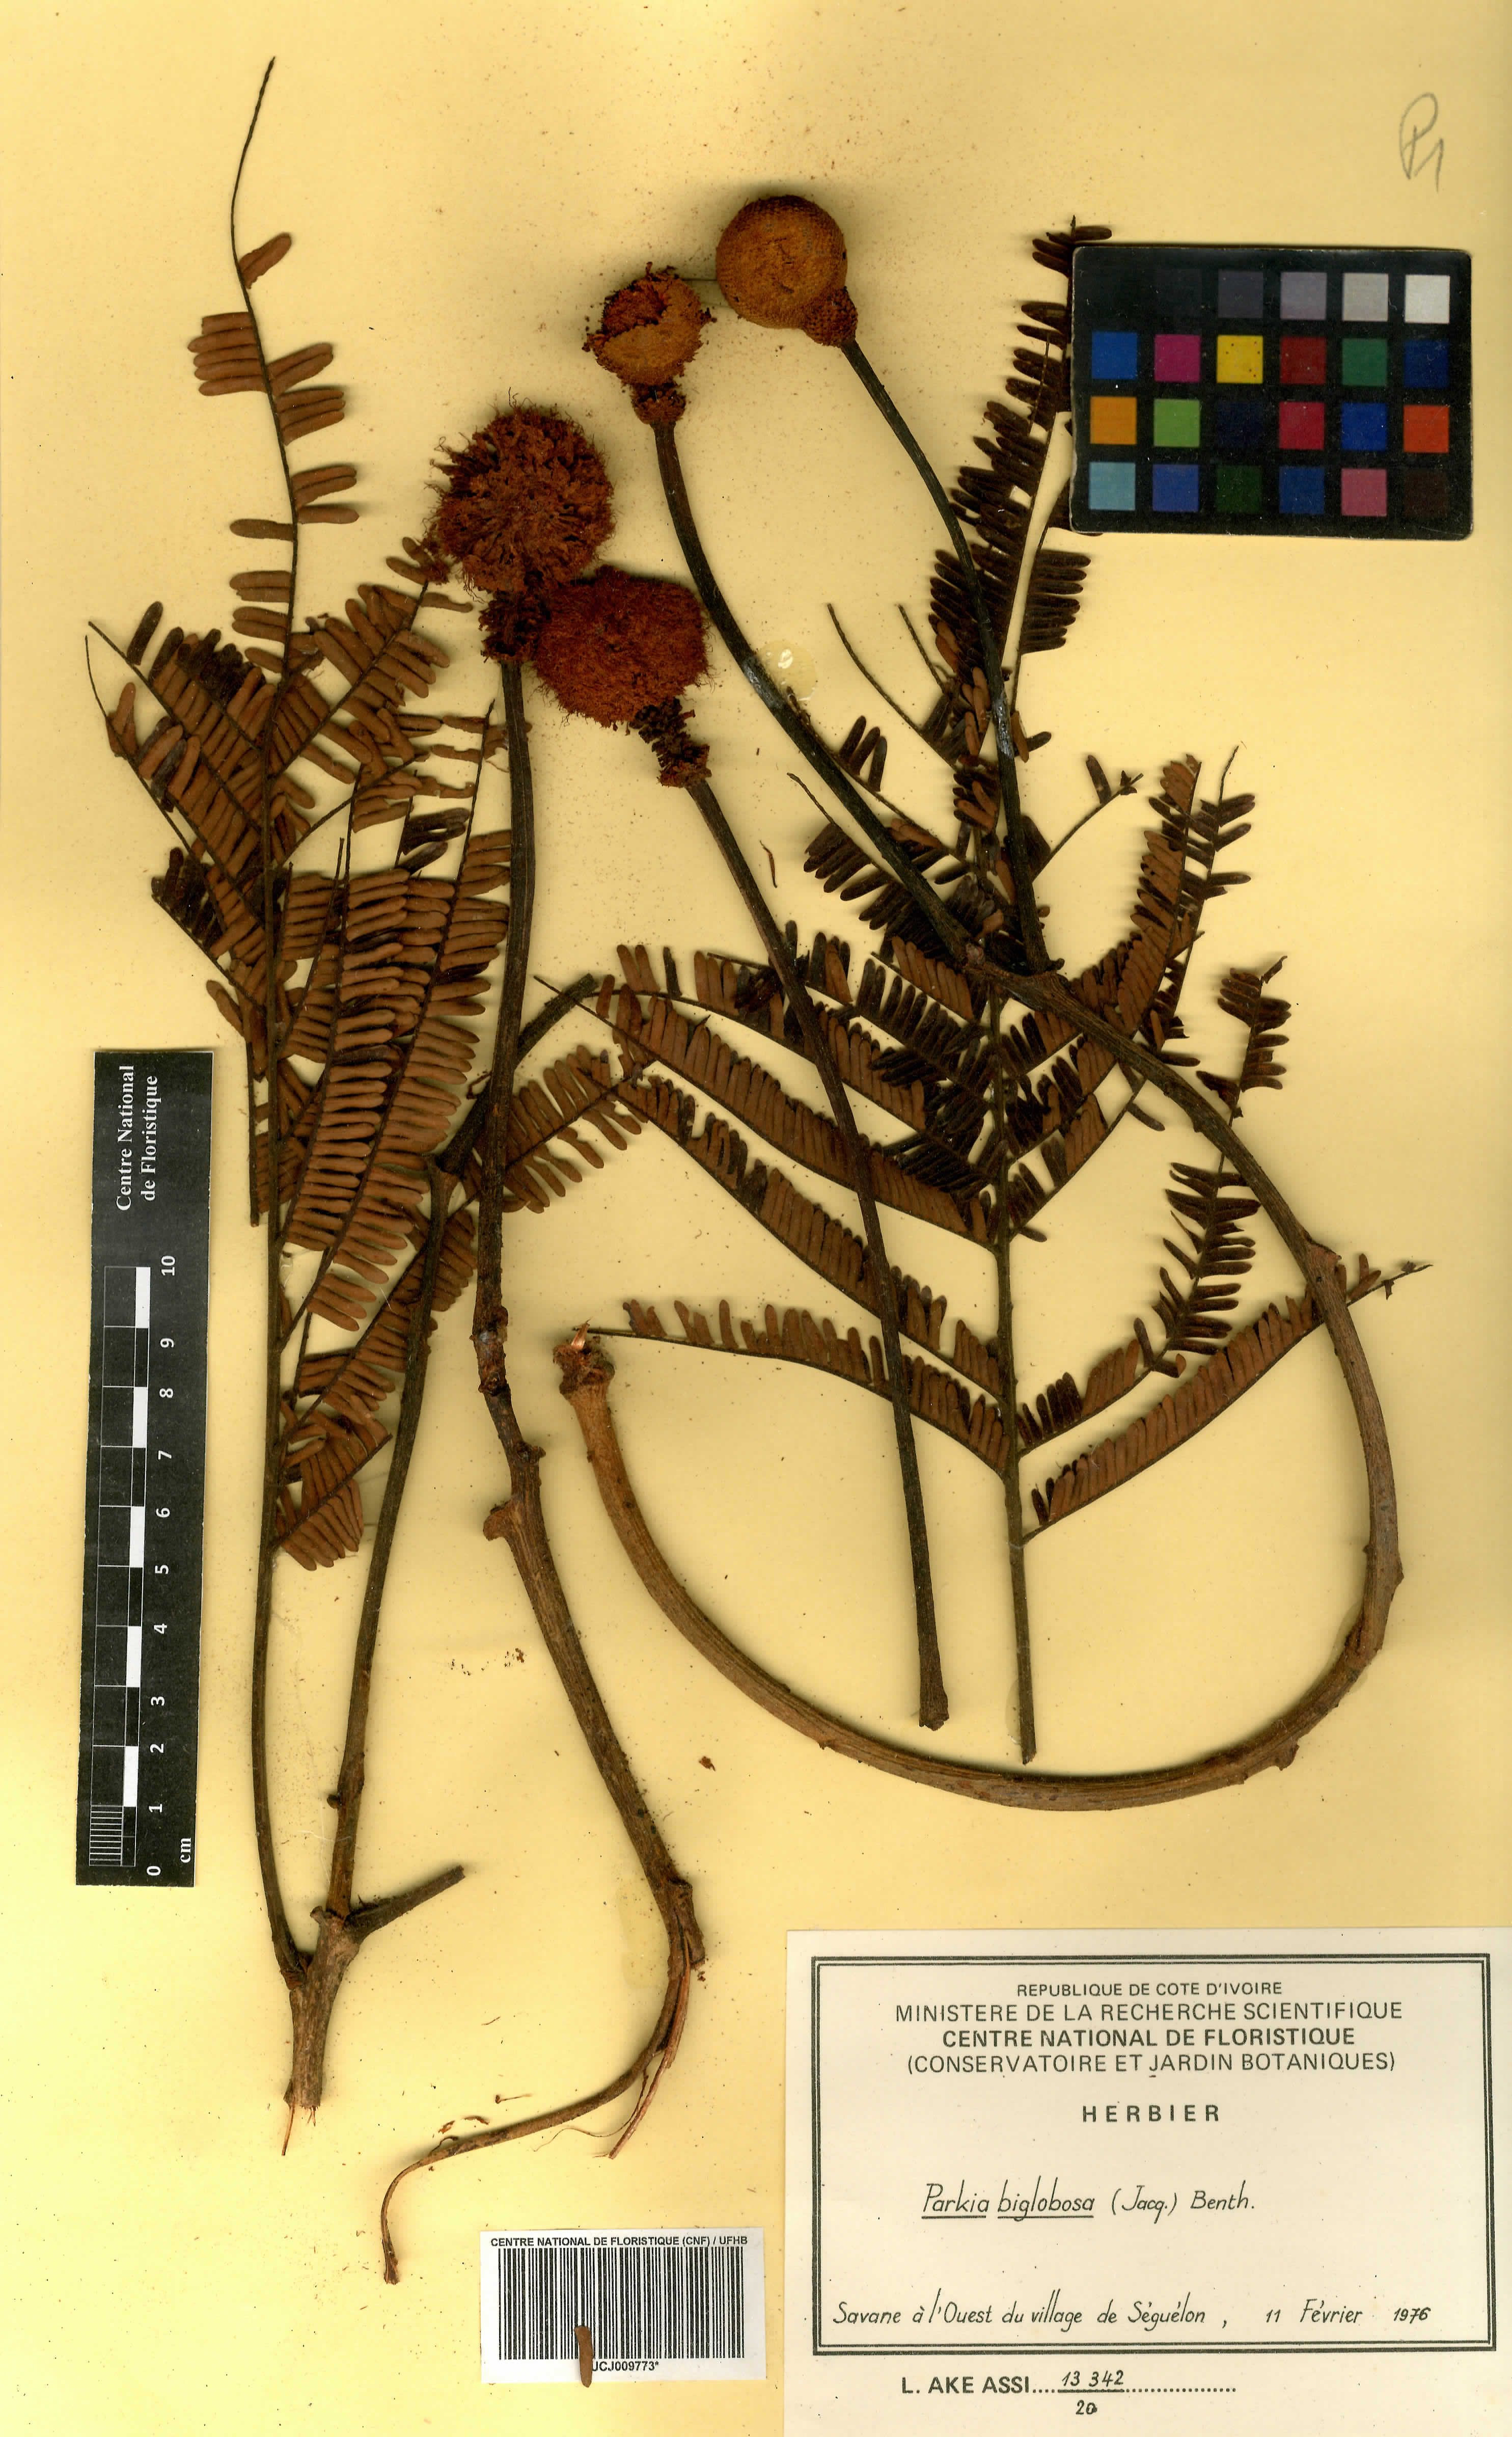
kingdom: Plantae
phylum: Tracheophyta
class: Magnoliopsida
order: Fabales
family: Fabaceae
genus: Parkia
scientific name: Parkia timoriana
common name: Legume
